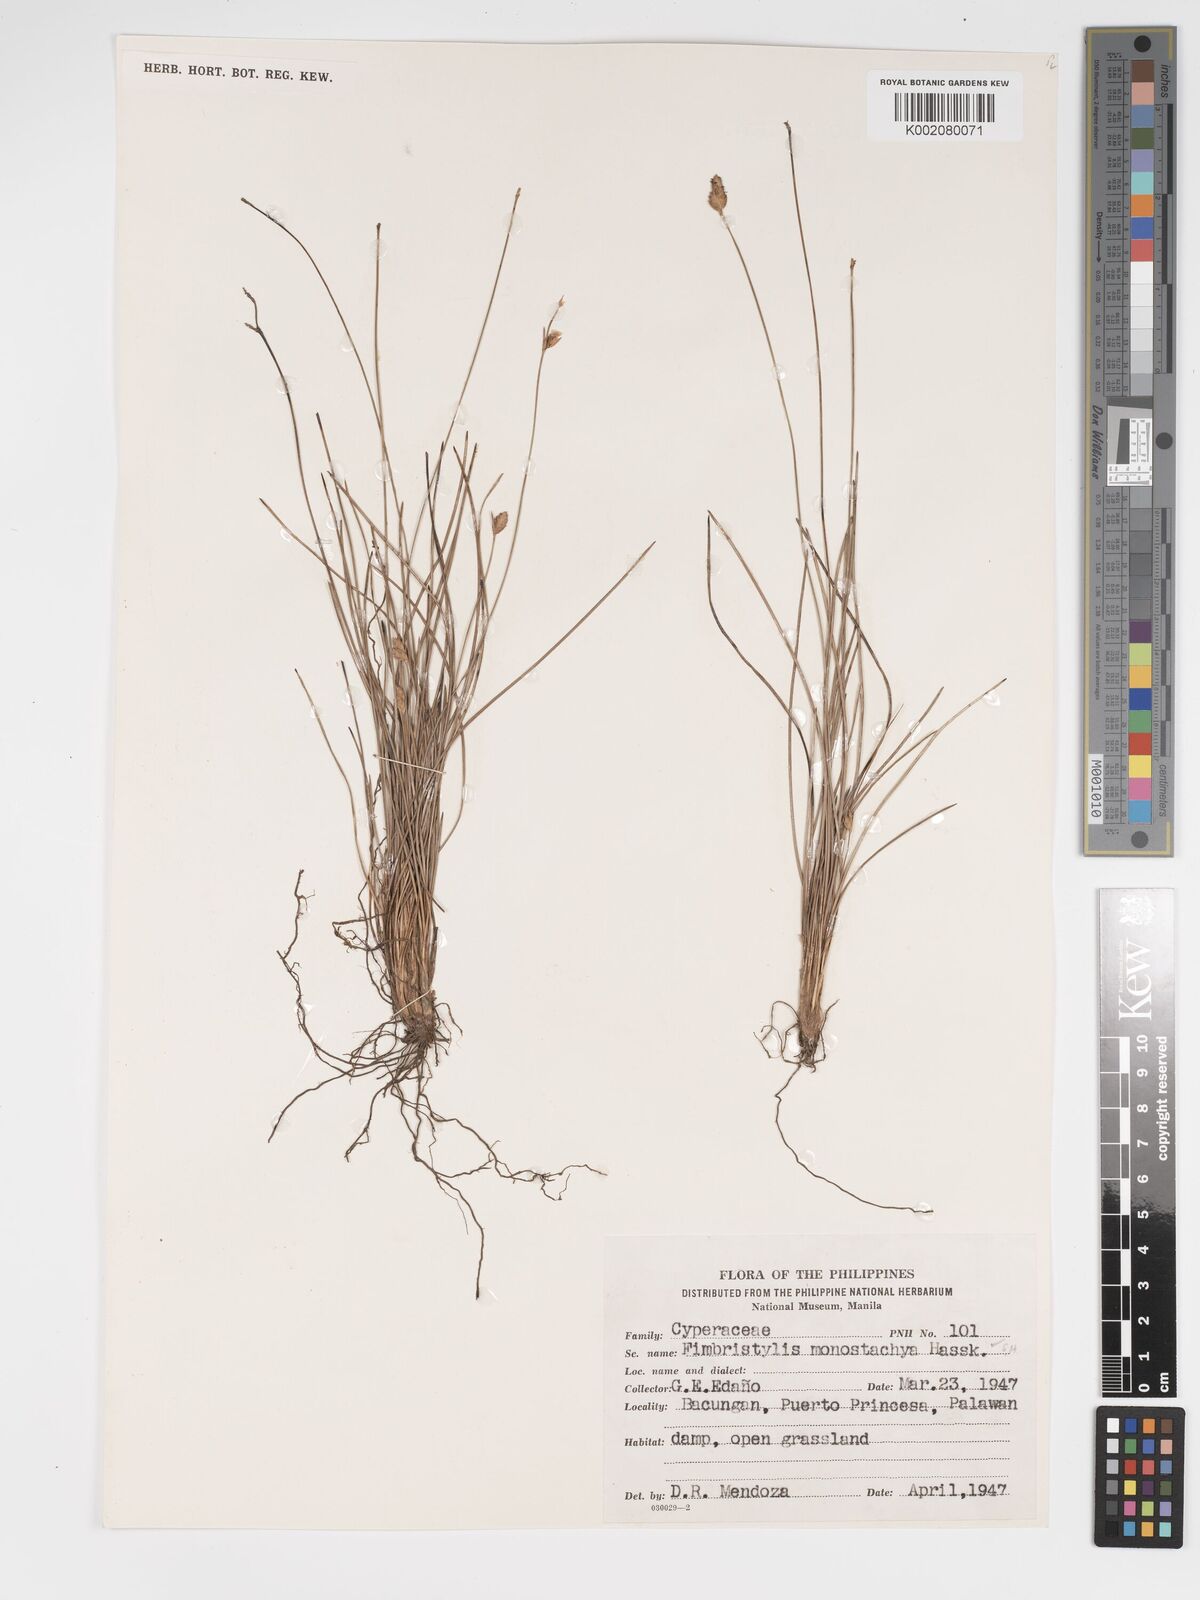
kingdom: Plantae
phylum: Tracheophyta
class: Liliopsida
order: Poales
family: Cyperaceae
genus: Abildgaardia
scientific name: Abildgaardia ovata
